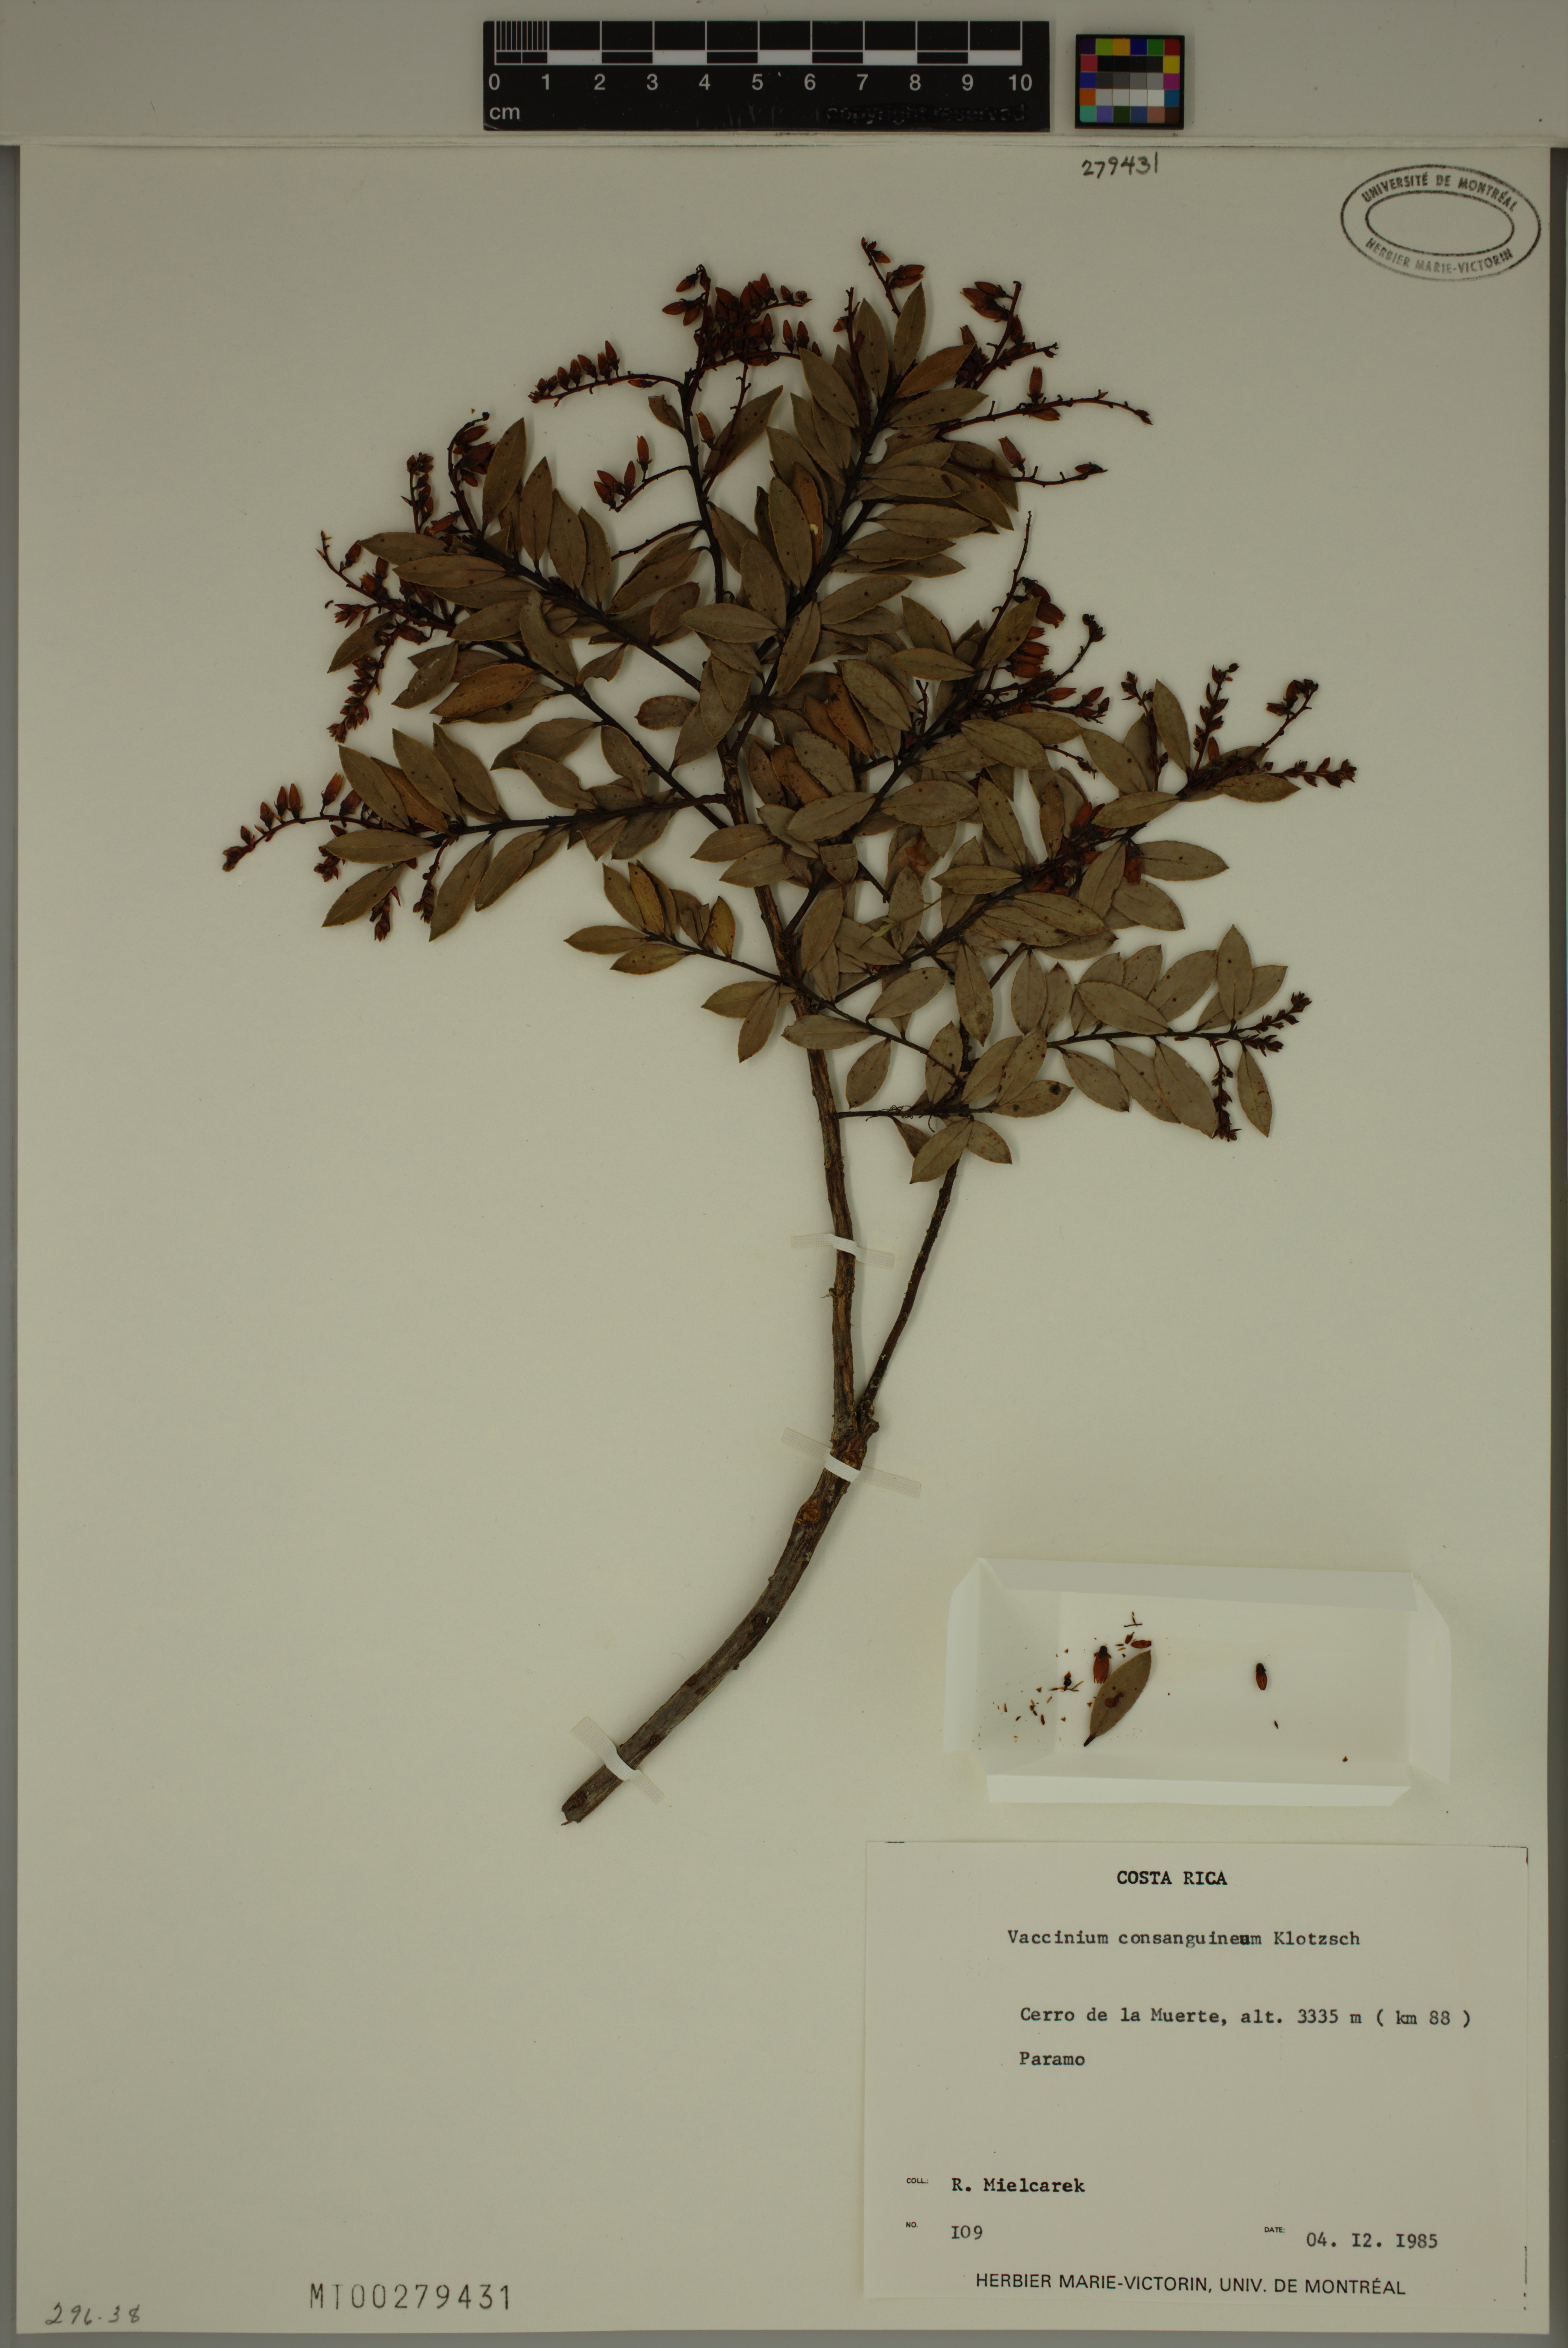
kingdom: Plantae
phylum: Tracheophyta
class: Magnoliopsida
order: Ericales
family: Ericaceae
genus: Vaccinium
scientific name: Vaccinium consanguineum
